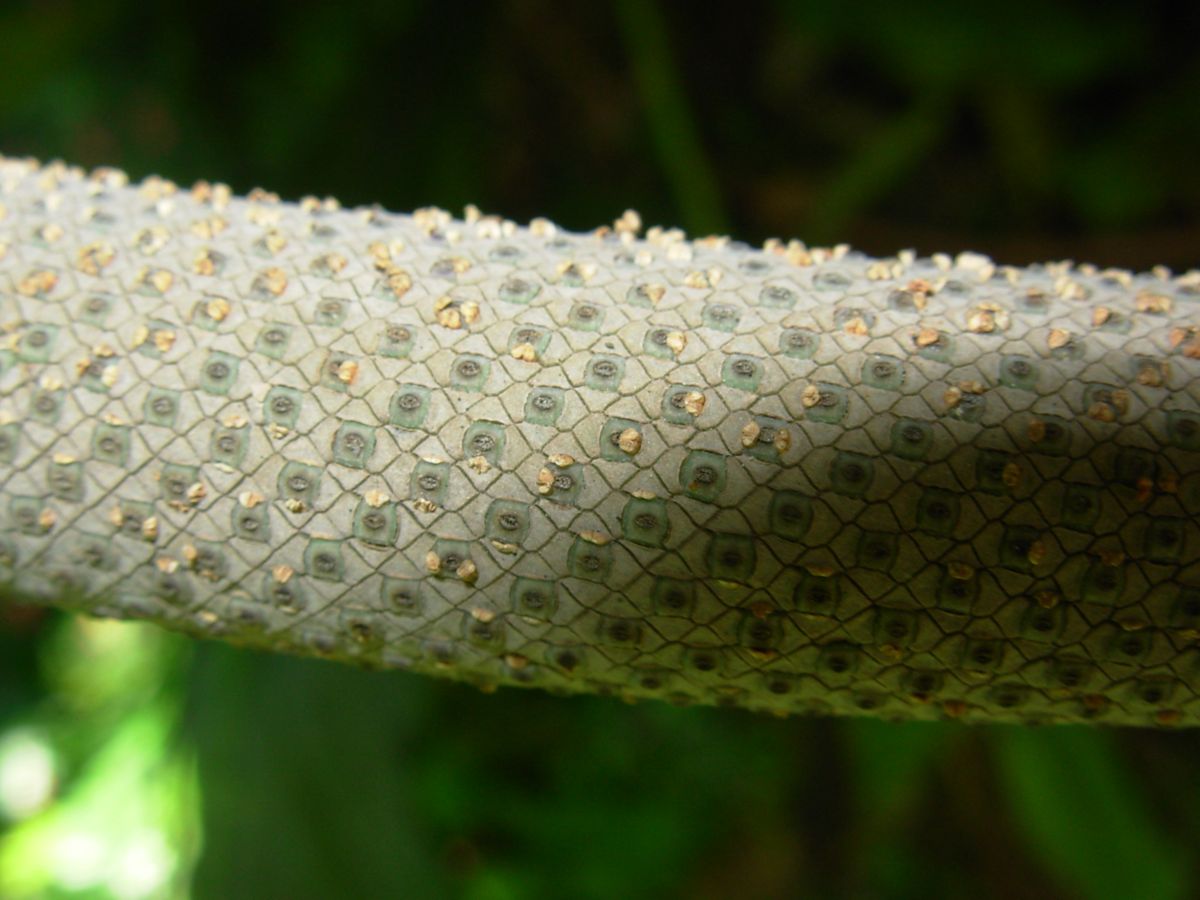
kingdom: Plantae
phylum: Tracheophyta
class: Liliopsida
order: Alismatales
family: Araceae
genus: Anthurium
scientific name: Anthurium salvinii
